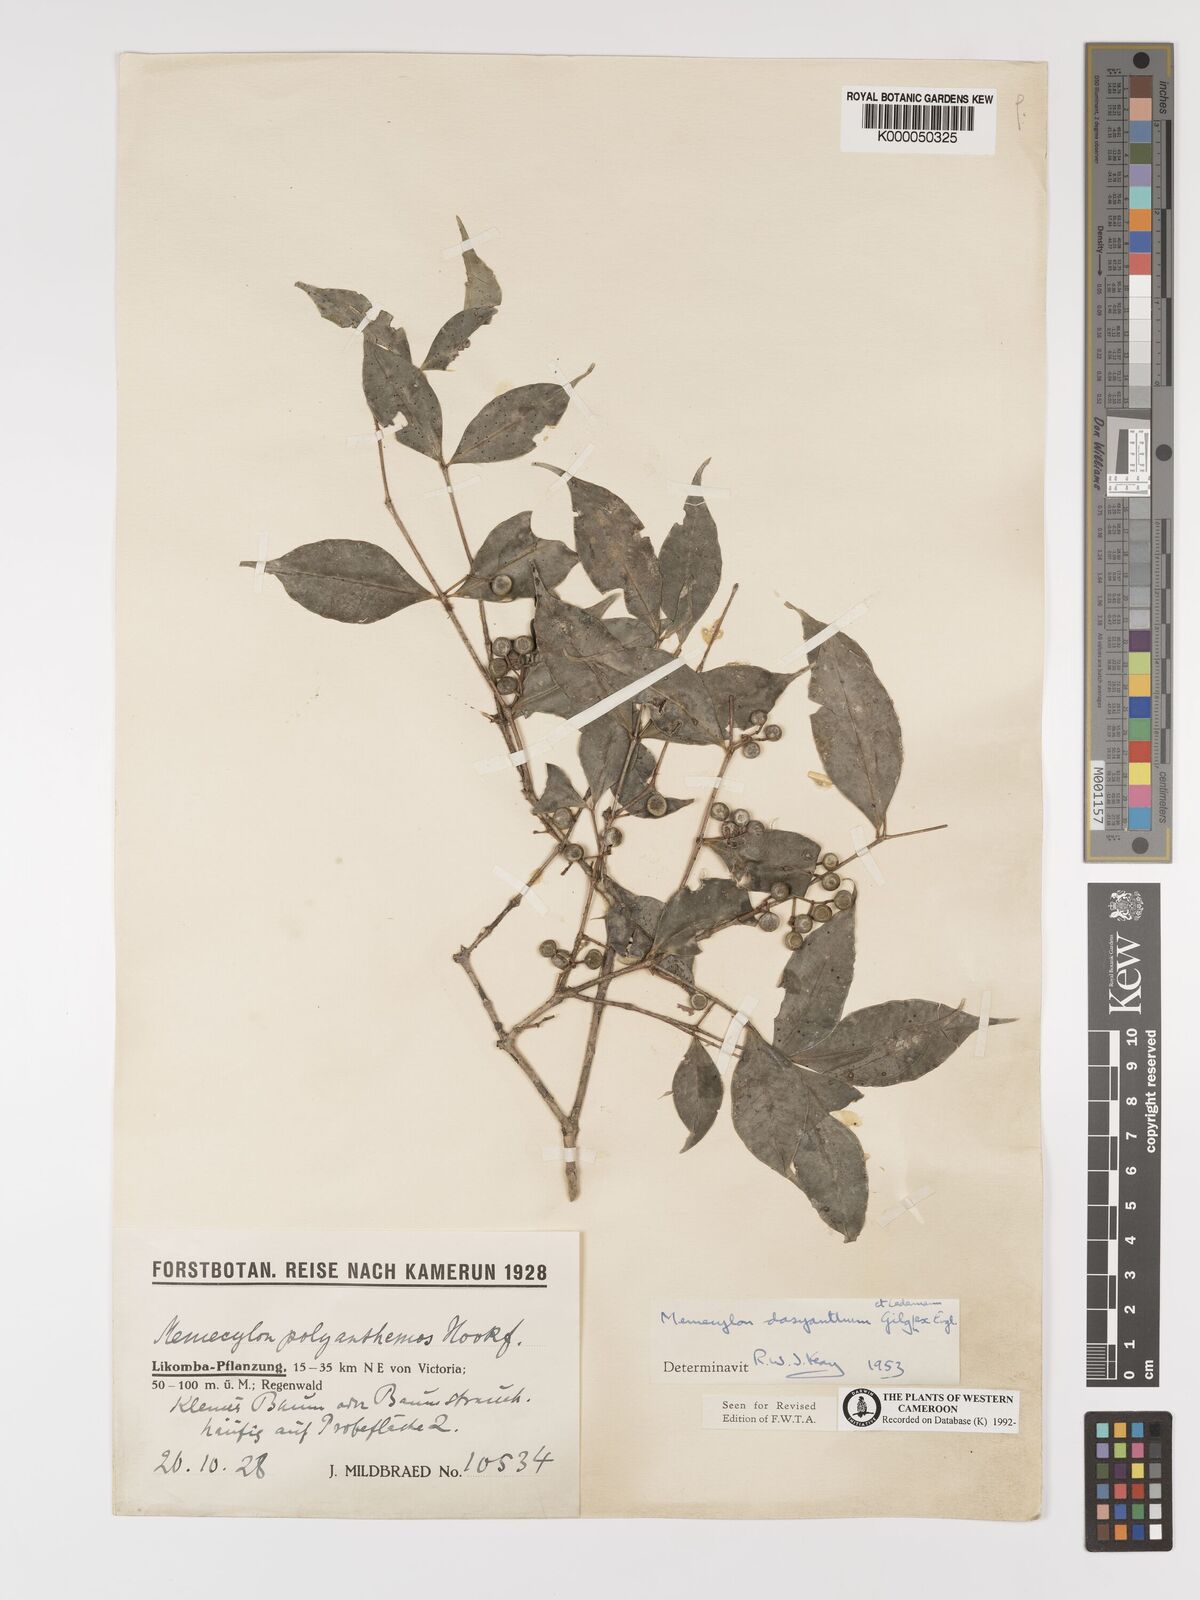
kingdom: Plantae
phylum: Tracheophyta
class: Magnoliopsida
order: Myrtales
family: Melastomataceae
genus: Memecylon
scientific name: Memecylon dasyanthum
